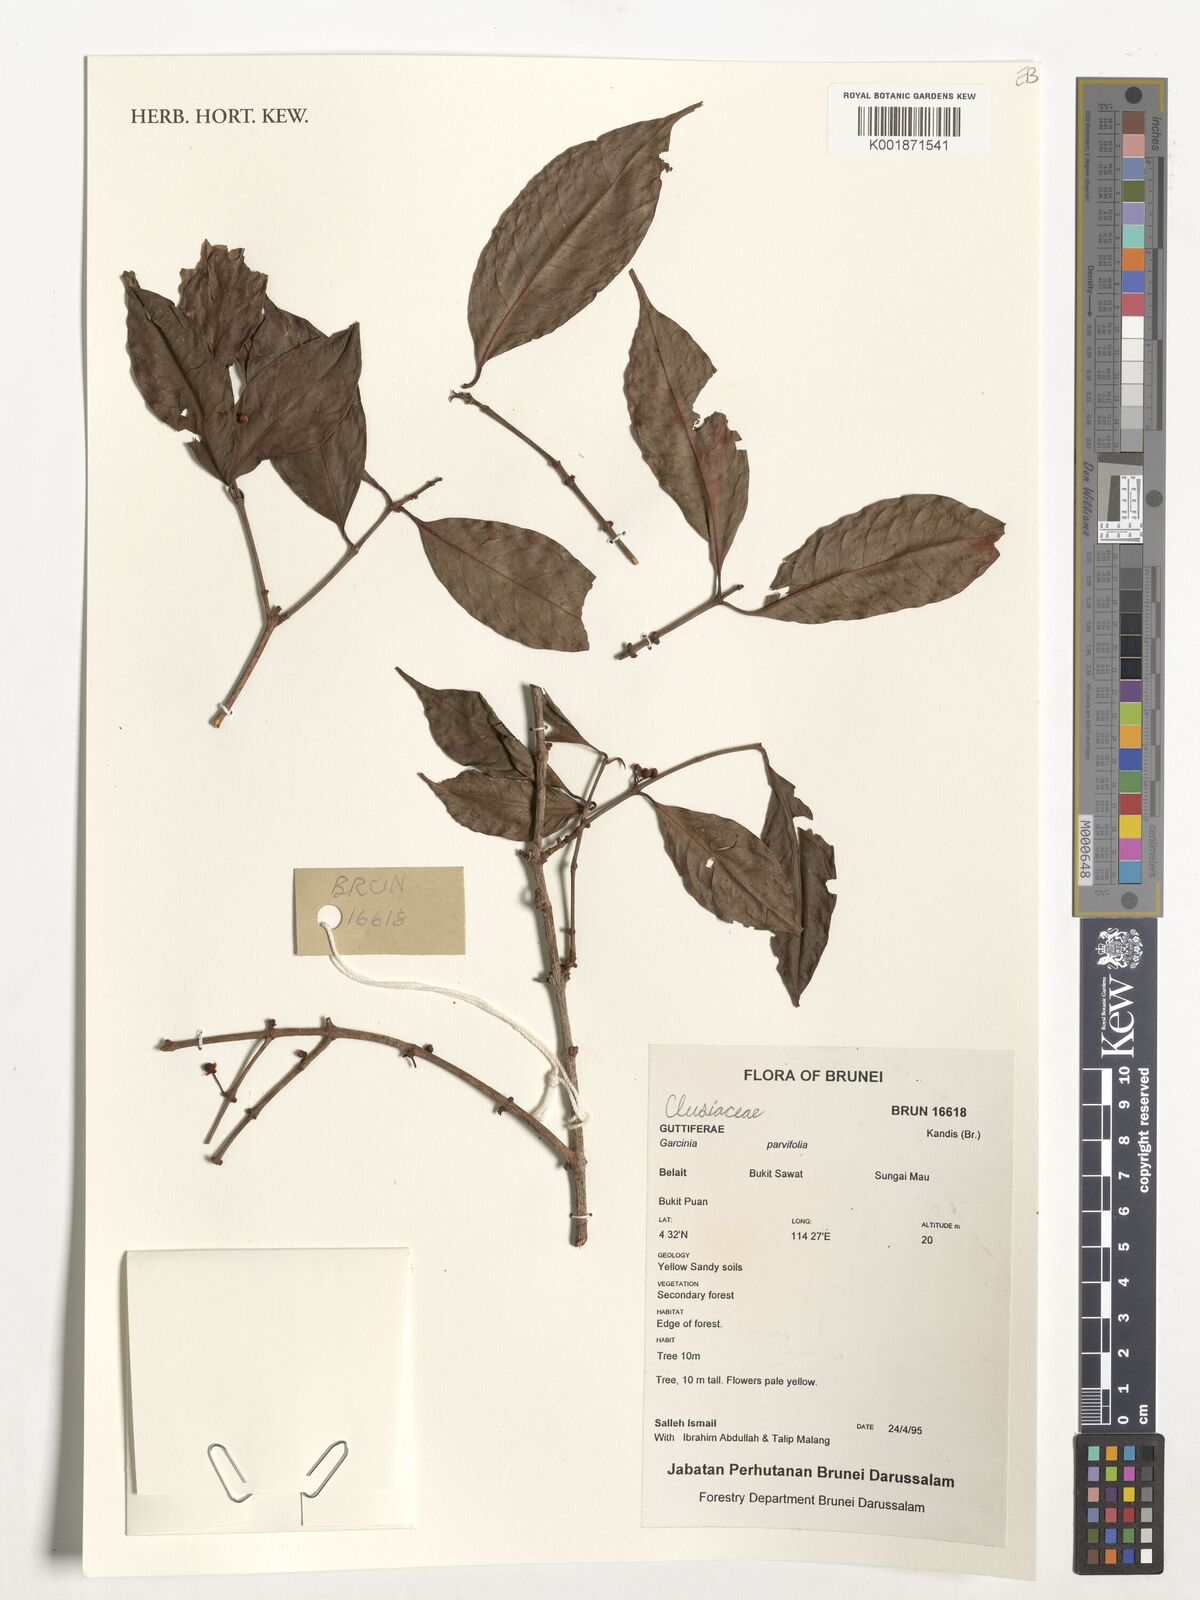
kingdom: Plantae
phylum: Tracheophyta
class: Magnoliopsida
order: Malpighiales
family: Clusiaceae
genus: Garcinia
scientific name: Garcinia parvifolia
